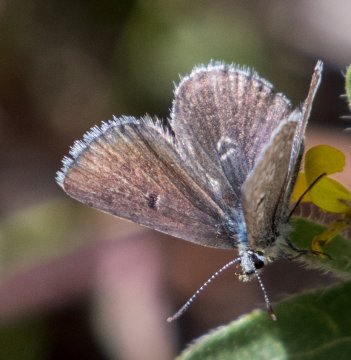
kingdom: Animalia
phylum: Arthropoda
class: Insecta
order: Lepidoptera
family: Lycaenidae
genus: Agriades
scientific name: Agriades glandon
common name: Arctic Blue
